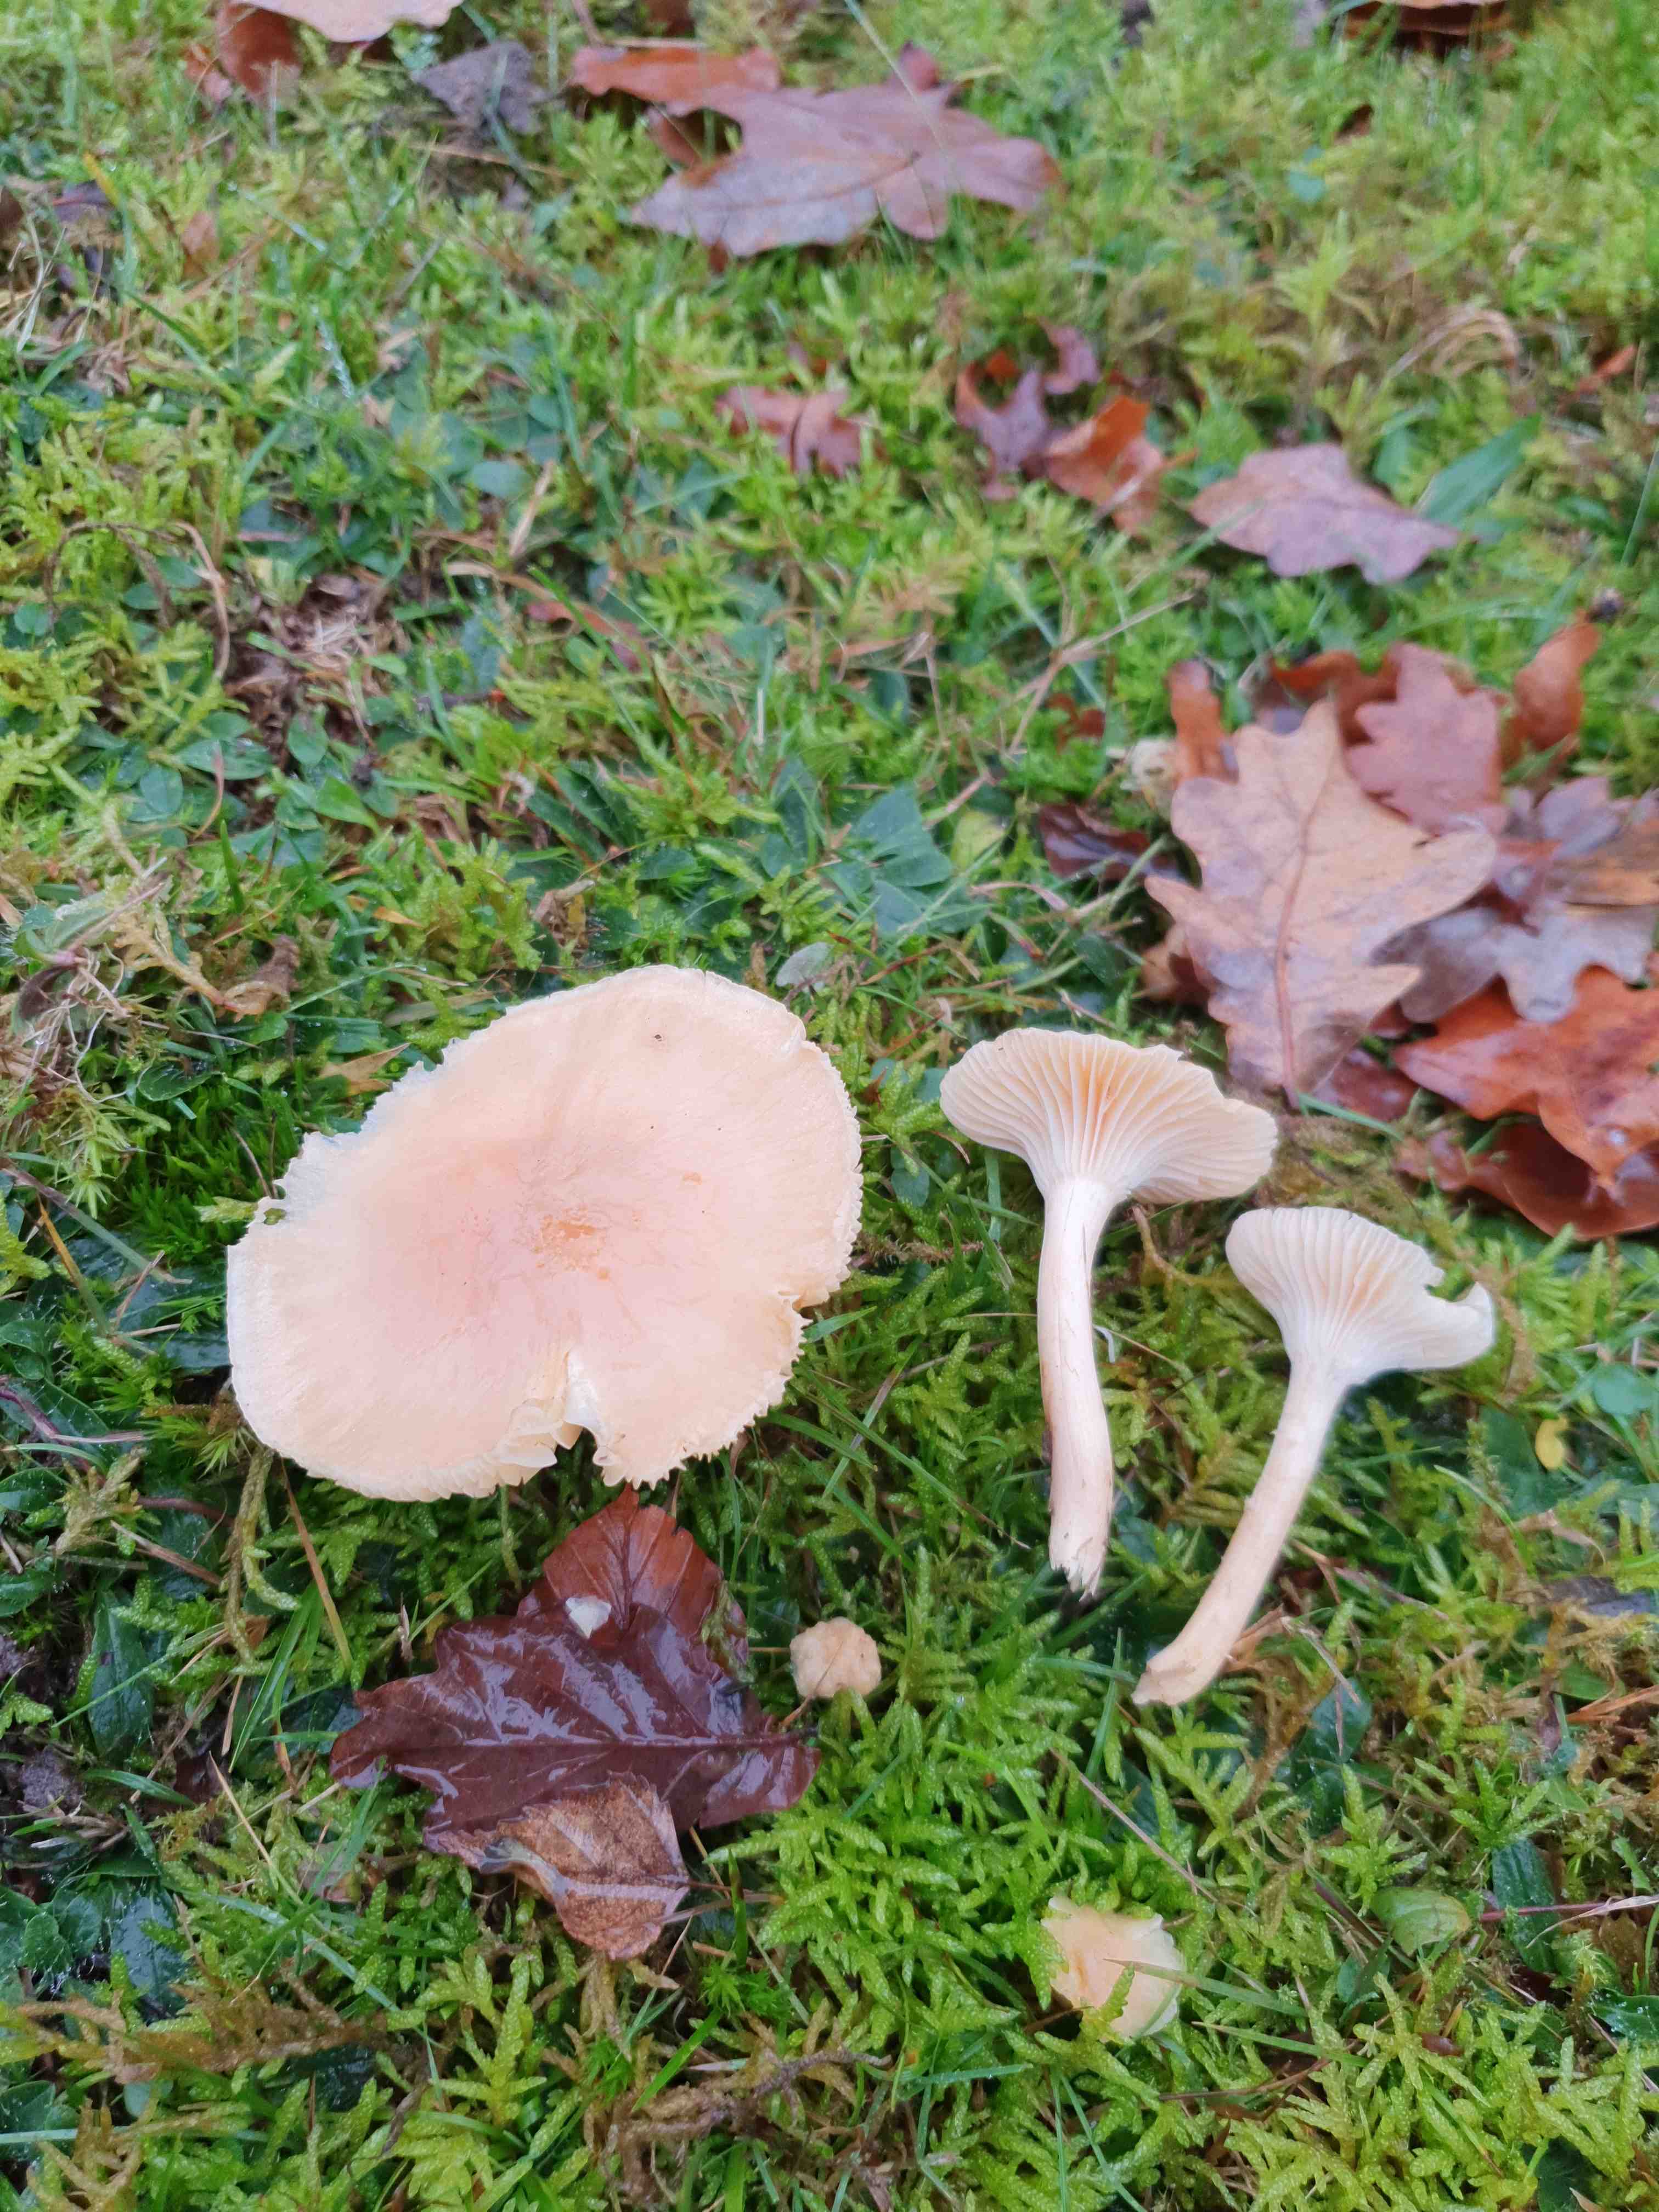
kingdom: Fungi
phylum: Basidiomycota
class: Agaricomycetes
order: Agaricales
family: Hygrophoraceae
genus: Cuphophyllus
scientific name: Cuphophyllus pratensis
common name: eng-vokshat
